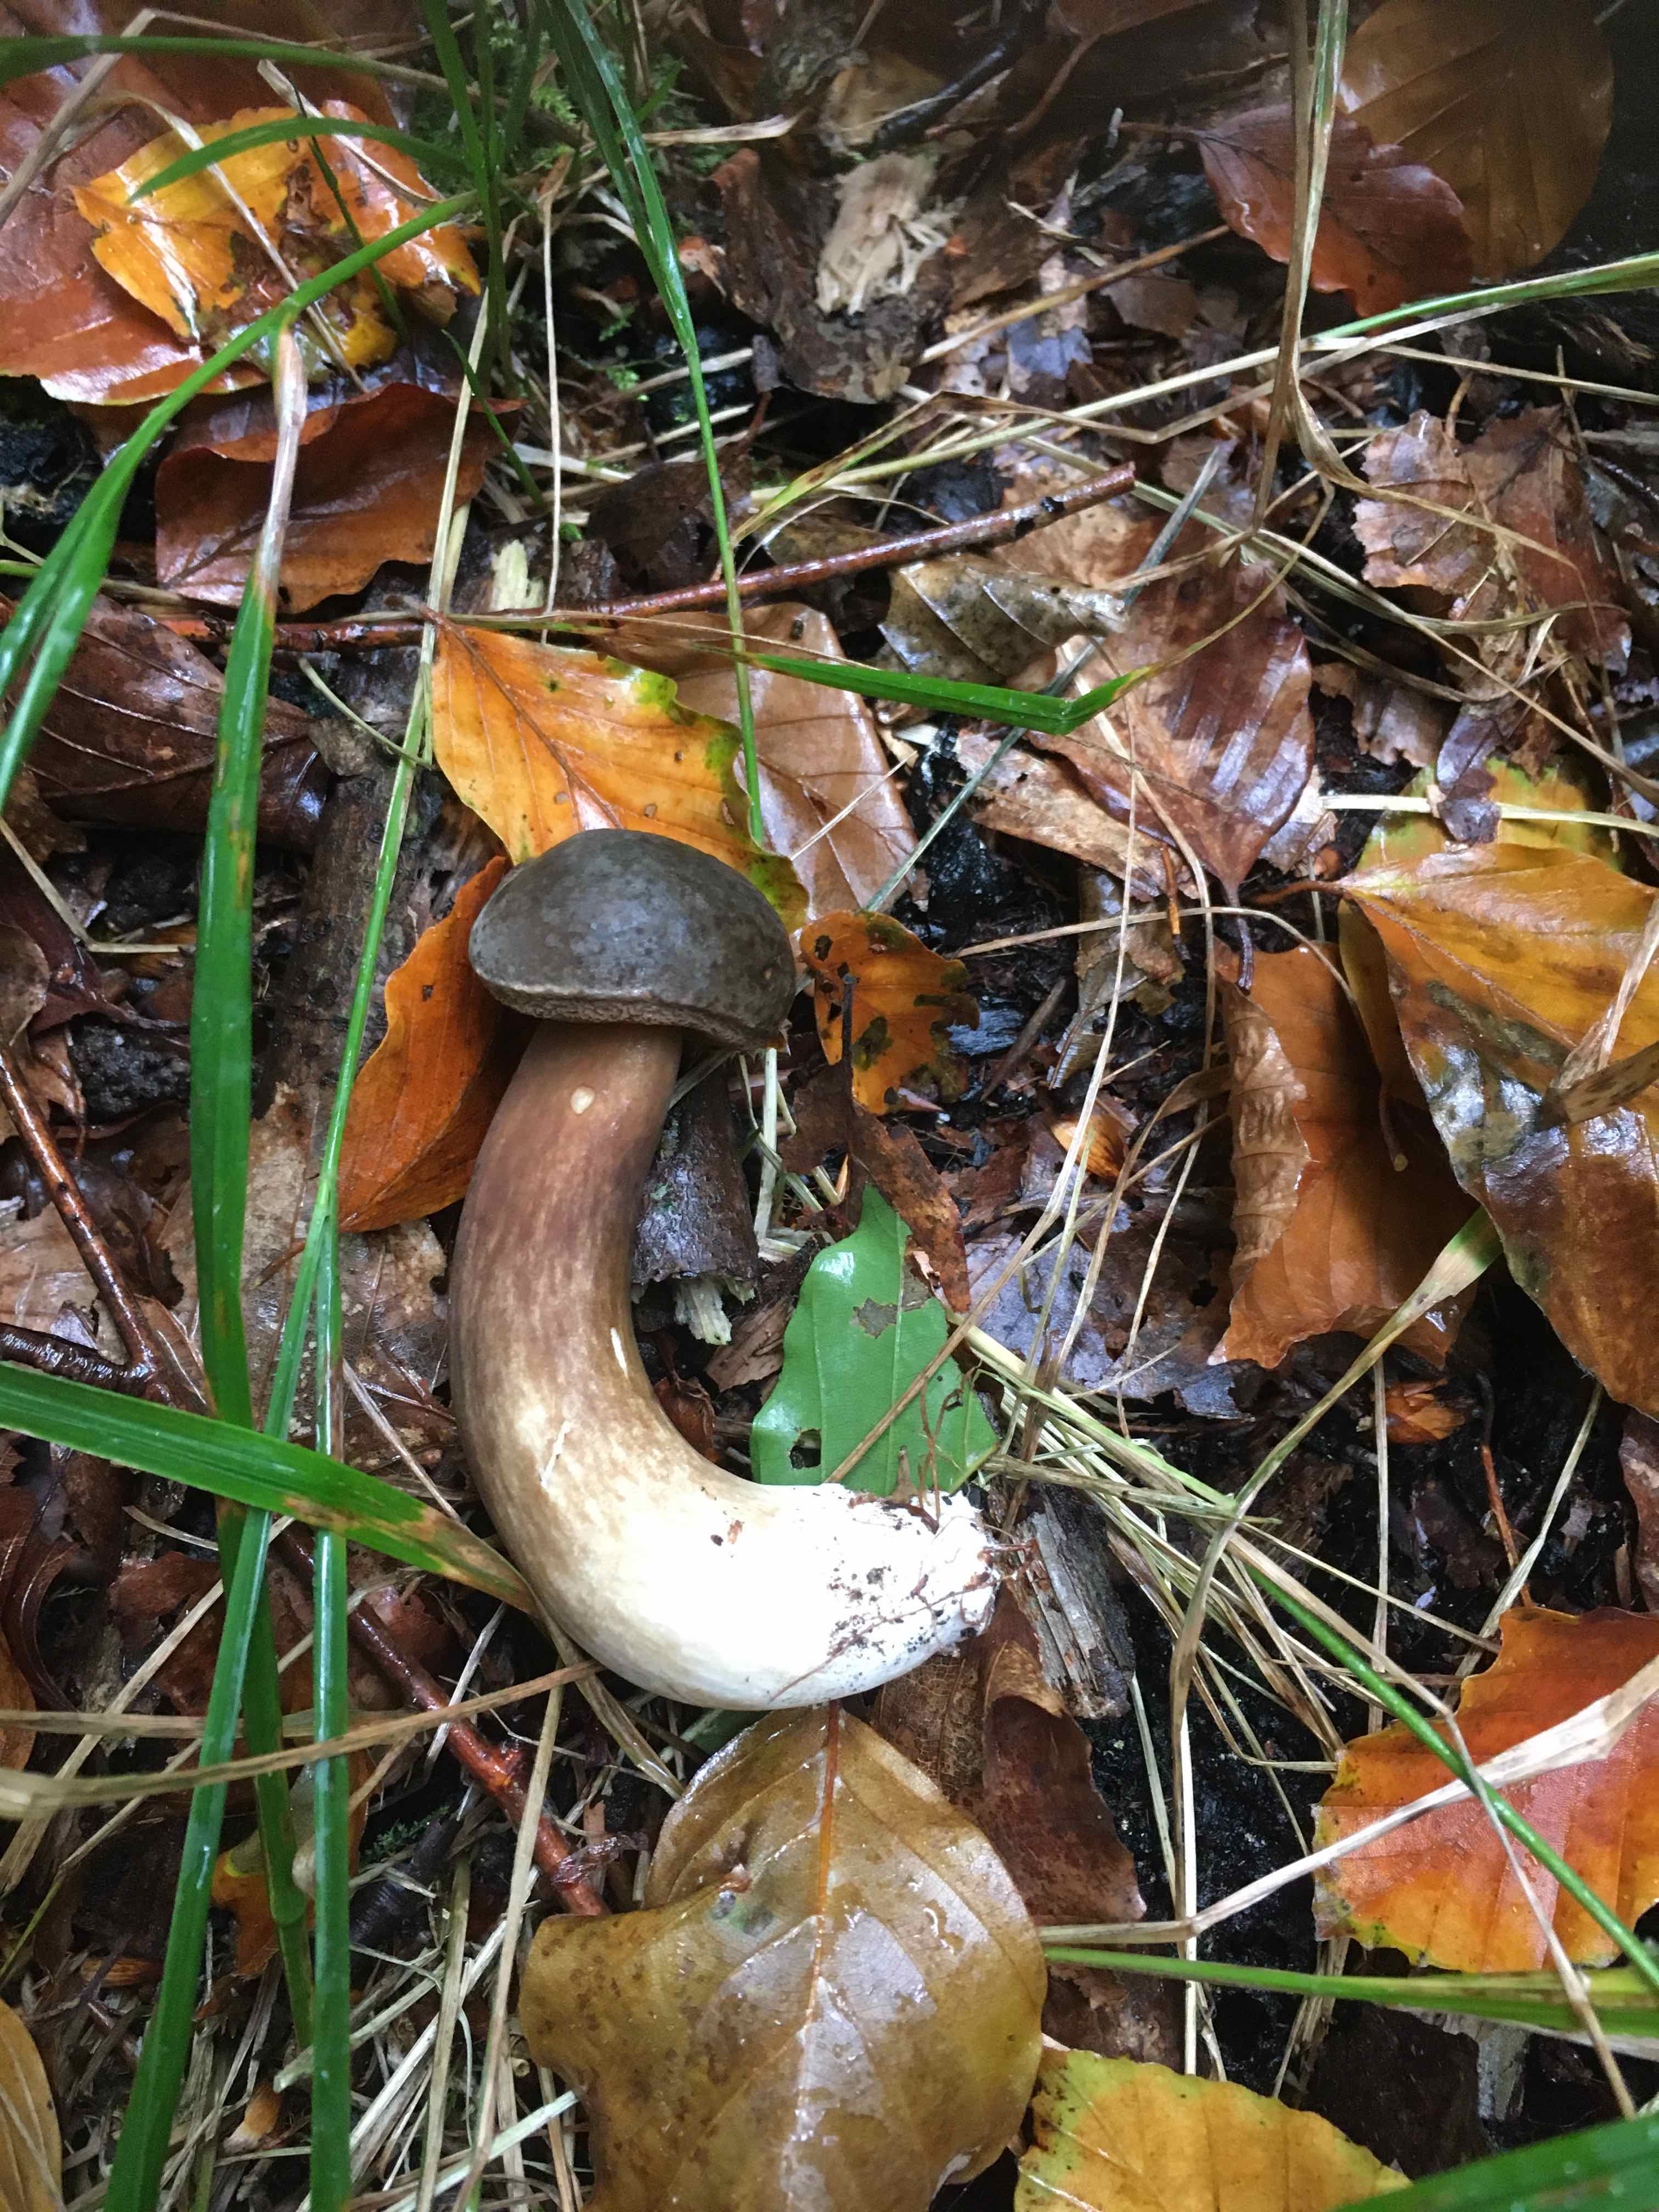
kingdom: Fungi
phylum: Basidiomycota
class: Agaricomycetes
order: Boletales
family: Boletaceae
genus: Porphyrellus
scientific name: Porphyrellus porphyrosporus
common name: sodrørhat
